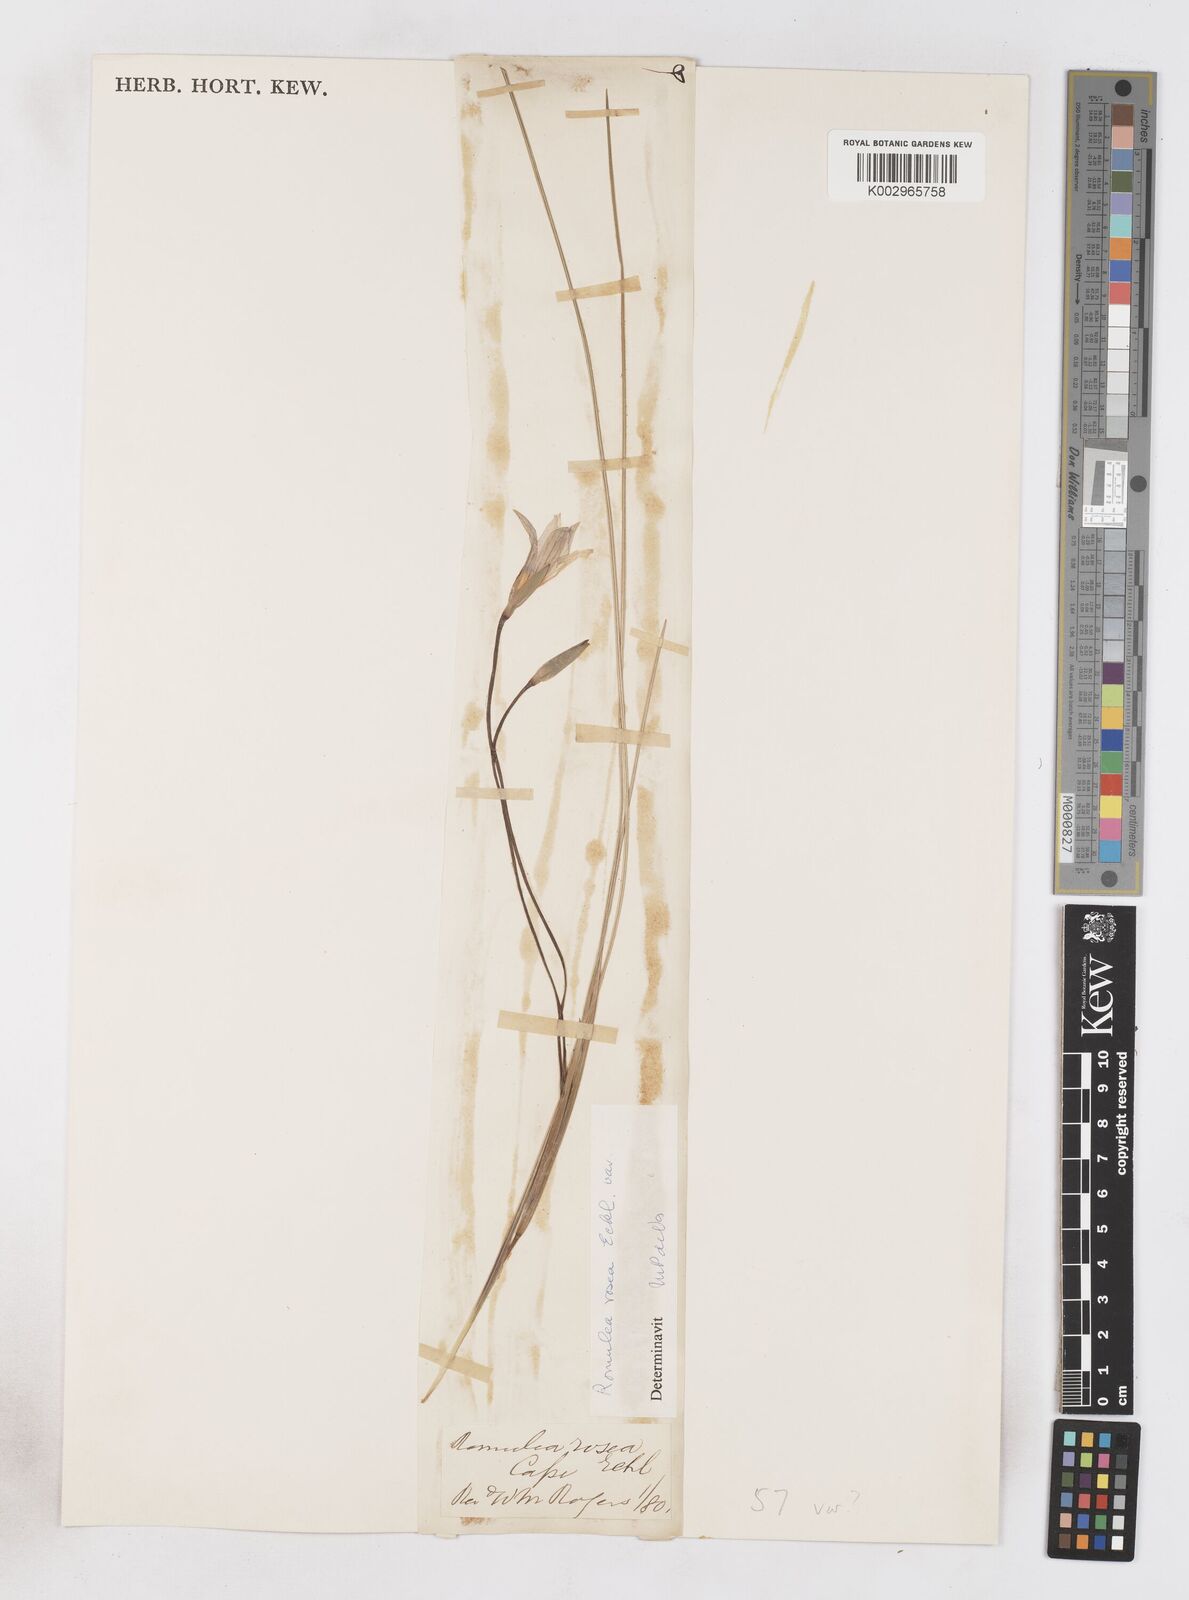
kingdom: Plantae
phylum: Tracheophyta
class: Liliopsida
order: Asparagales
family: Iridaceae
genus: Romulea
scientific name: Romulea rosea
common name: Oniongrass
